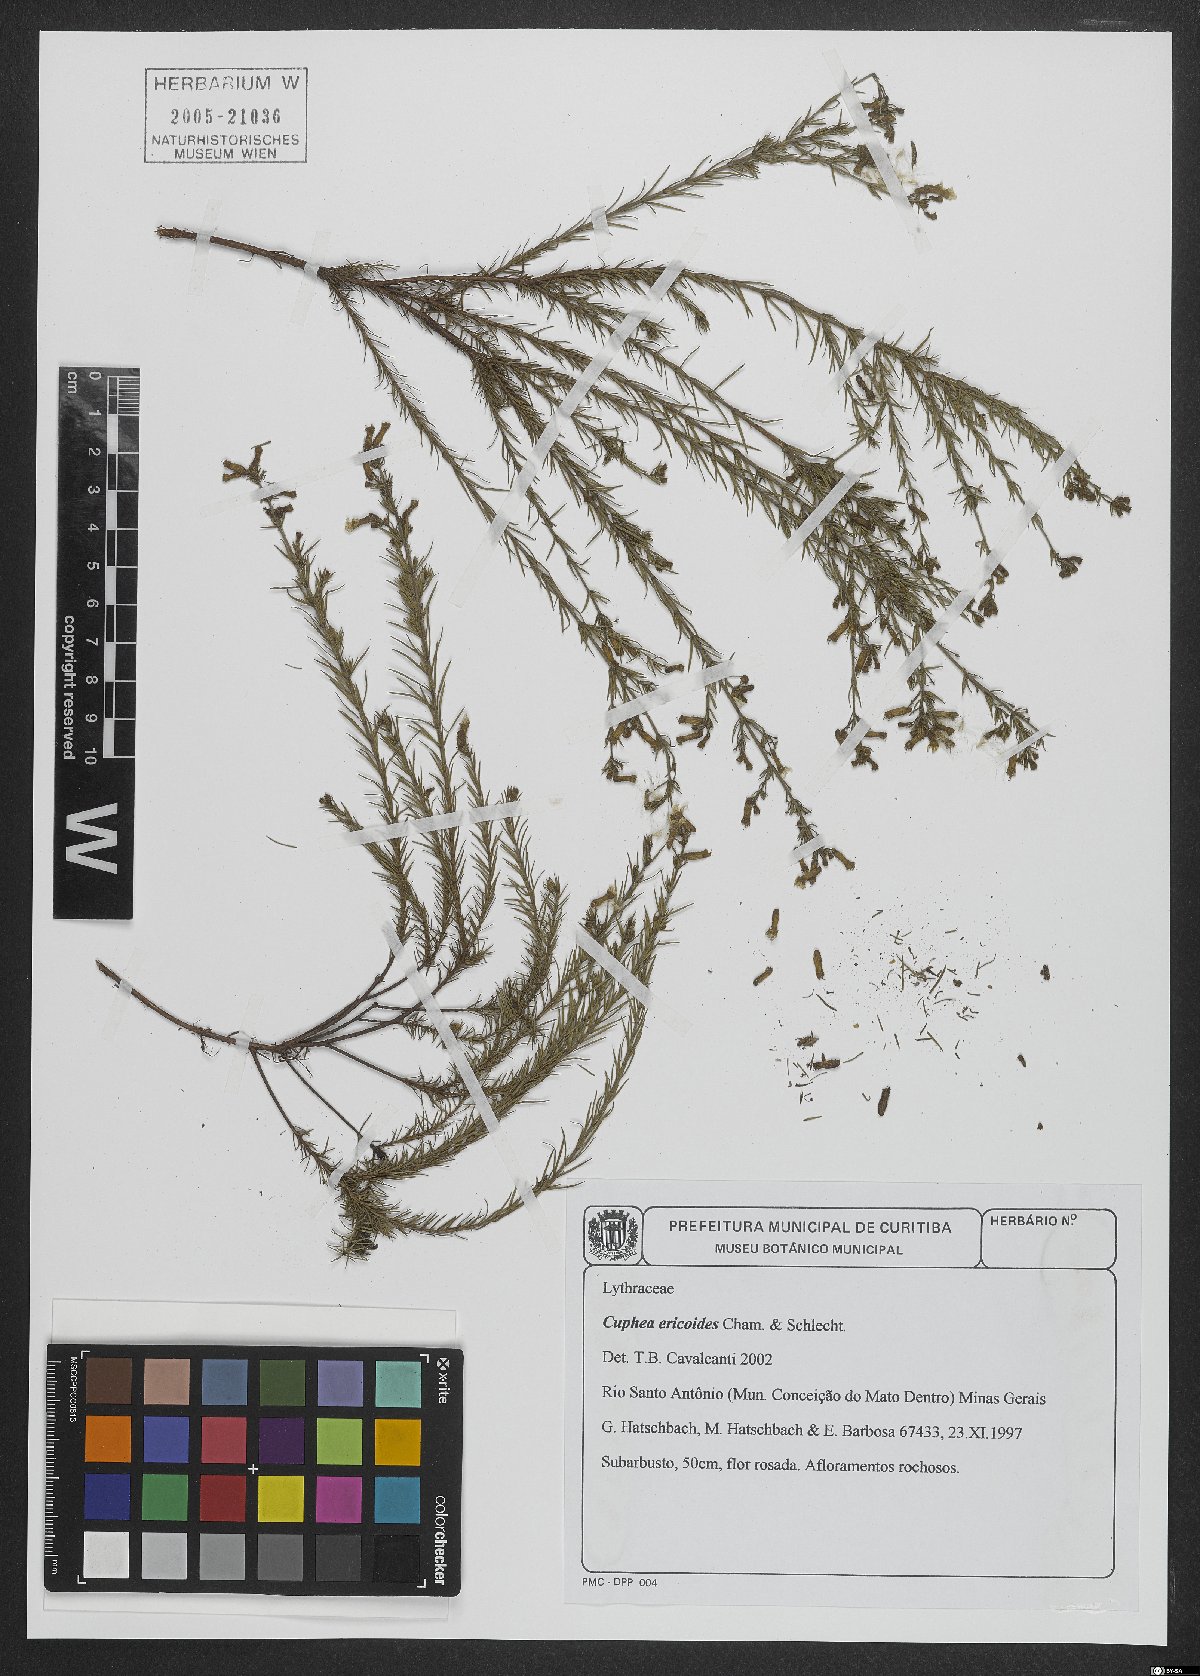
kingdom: Plantae
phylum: Tracheophyta
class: Magnoliopsida
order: Myrtales
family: Lythraceae
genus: Cuphea
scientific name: Cuphea ericoides
